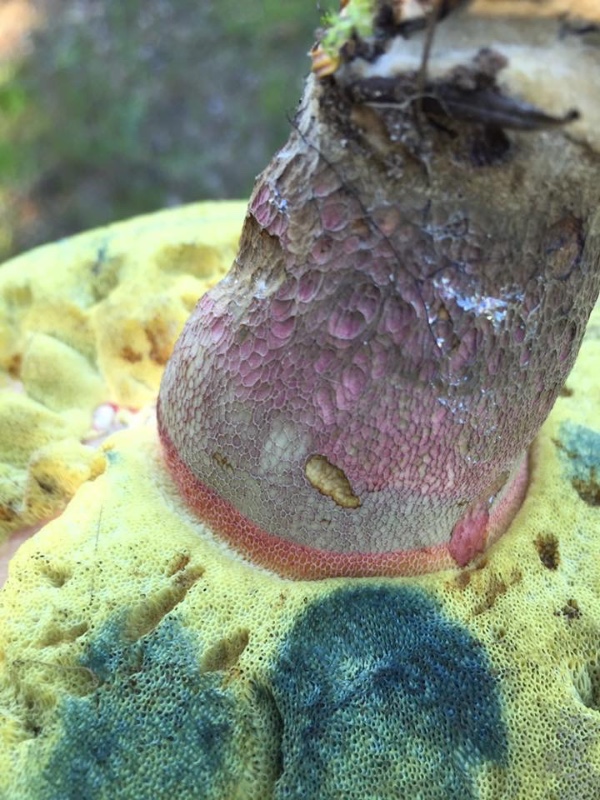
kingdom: Fungi
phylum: Basidiomycota
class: Agaricomycetes
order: Boletales
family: Boletaceae
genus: Caloboletus
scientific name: Caloboletus calopus
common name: skønfodet rørhat
